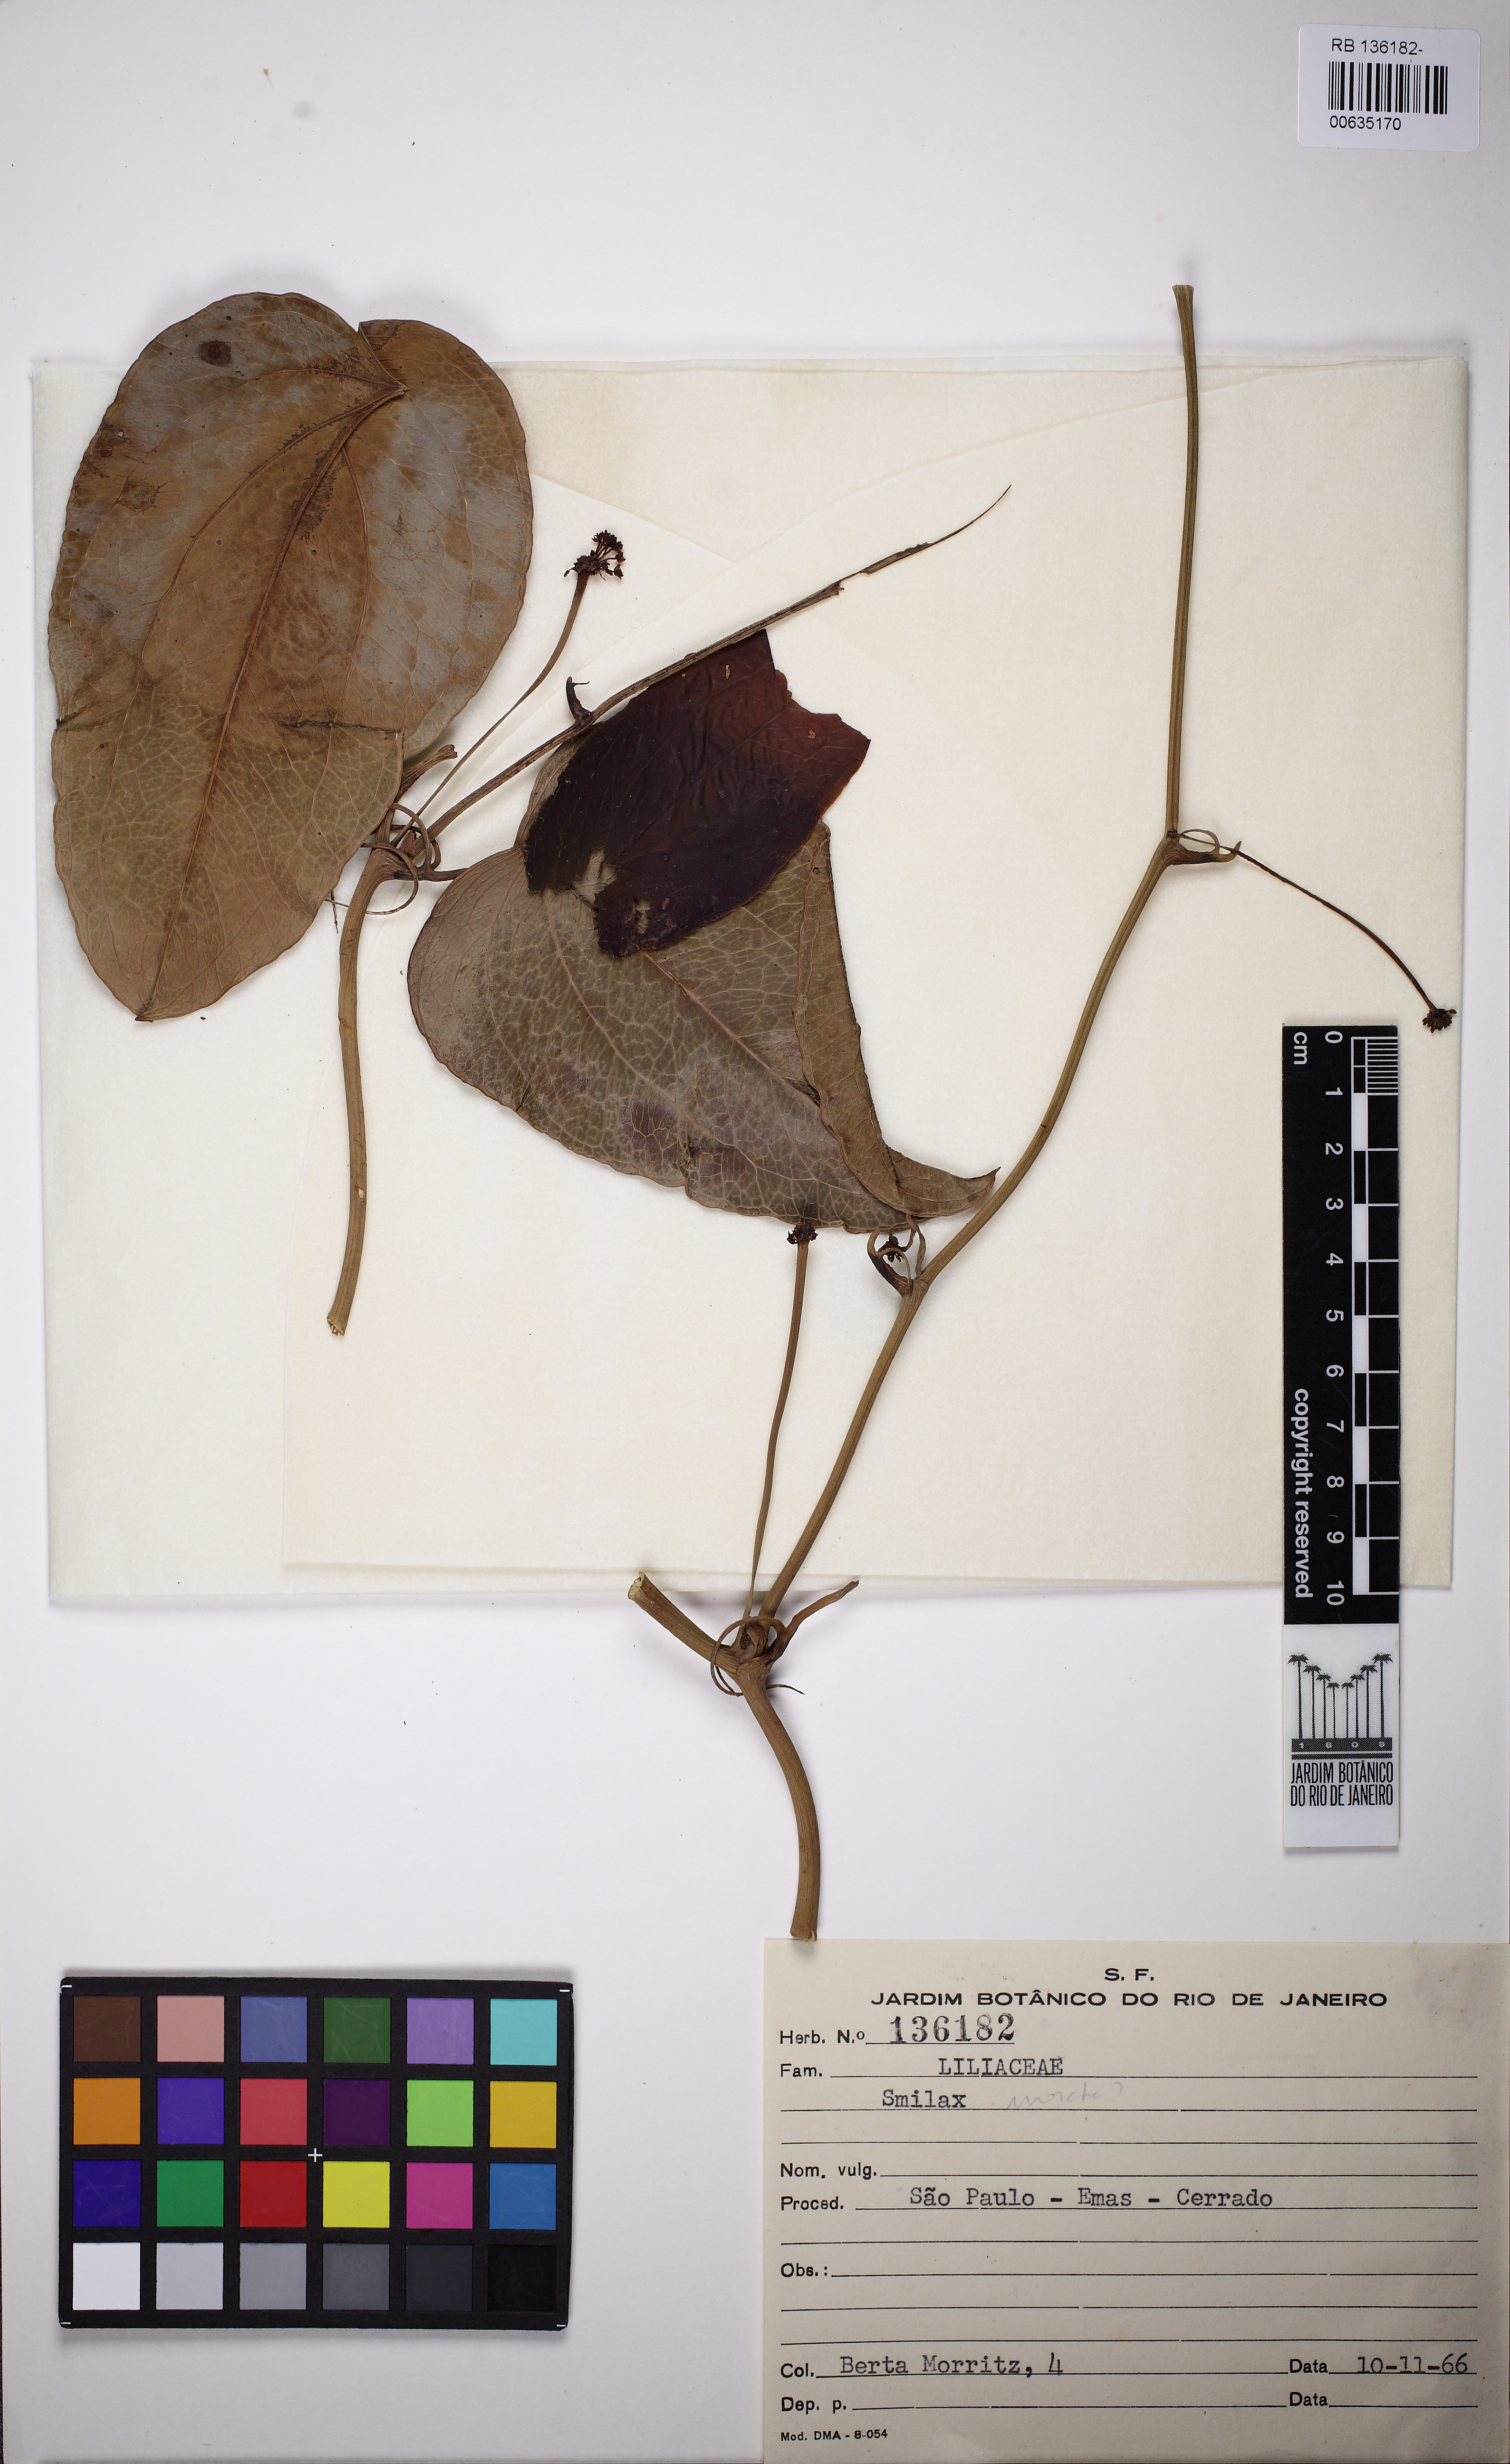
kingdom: Plantae
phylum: Tracheophyta
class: Liliopsida
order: Liliales
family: Smilacaceae
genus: Smilax
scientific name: Smilax
